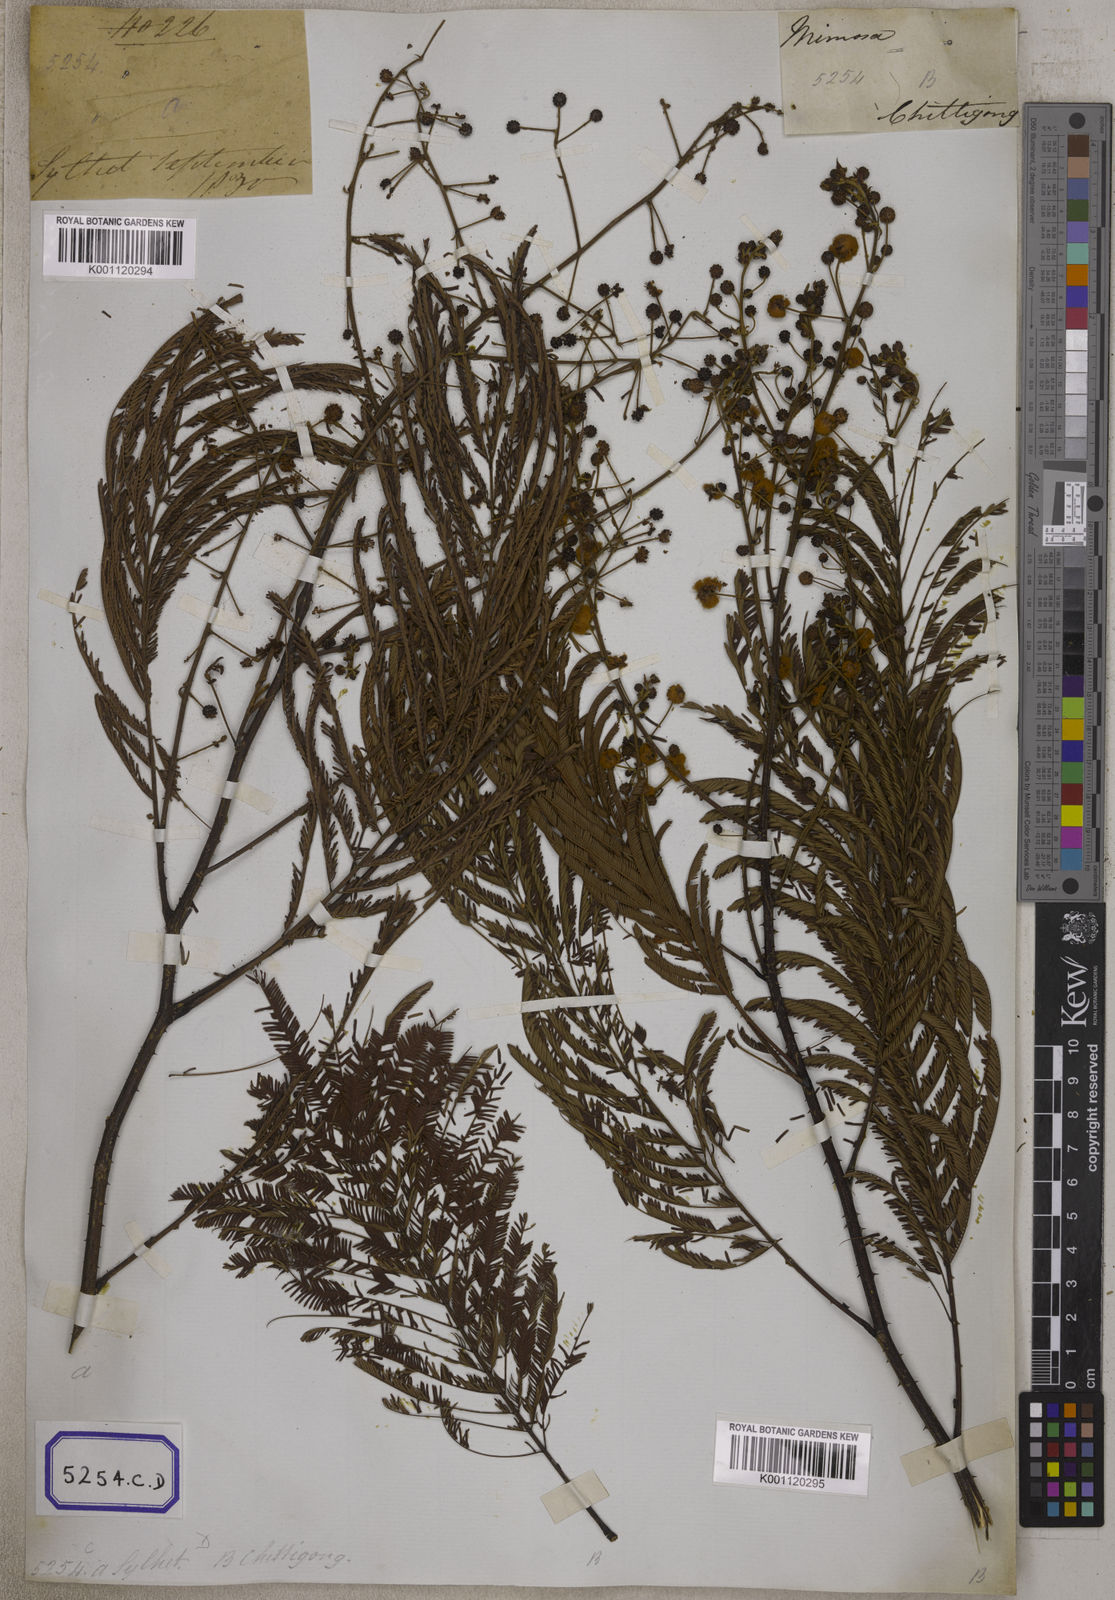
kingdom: Plantae
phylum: Tracheophyta
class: Magnoliopsida
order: Fabales
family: Fabaceae
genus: Senegalia
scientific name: Senegalia pennata
